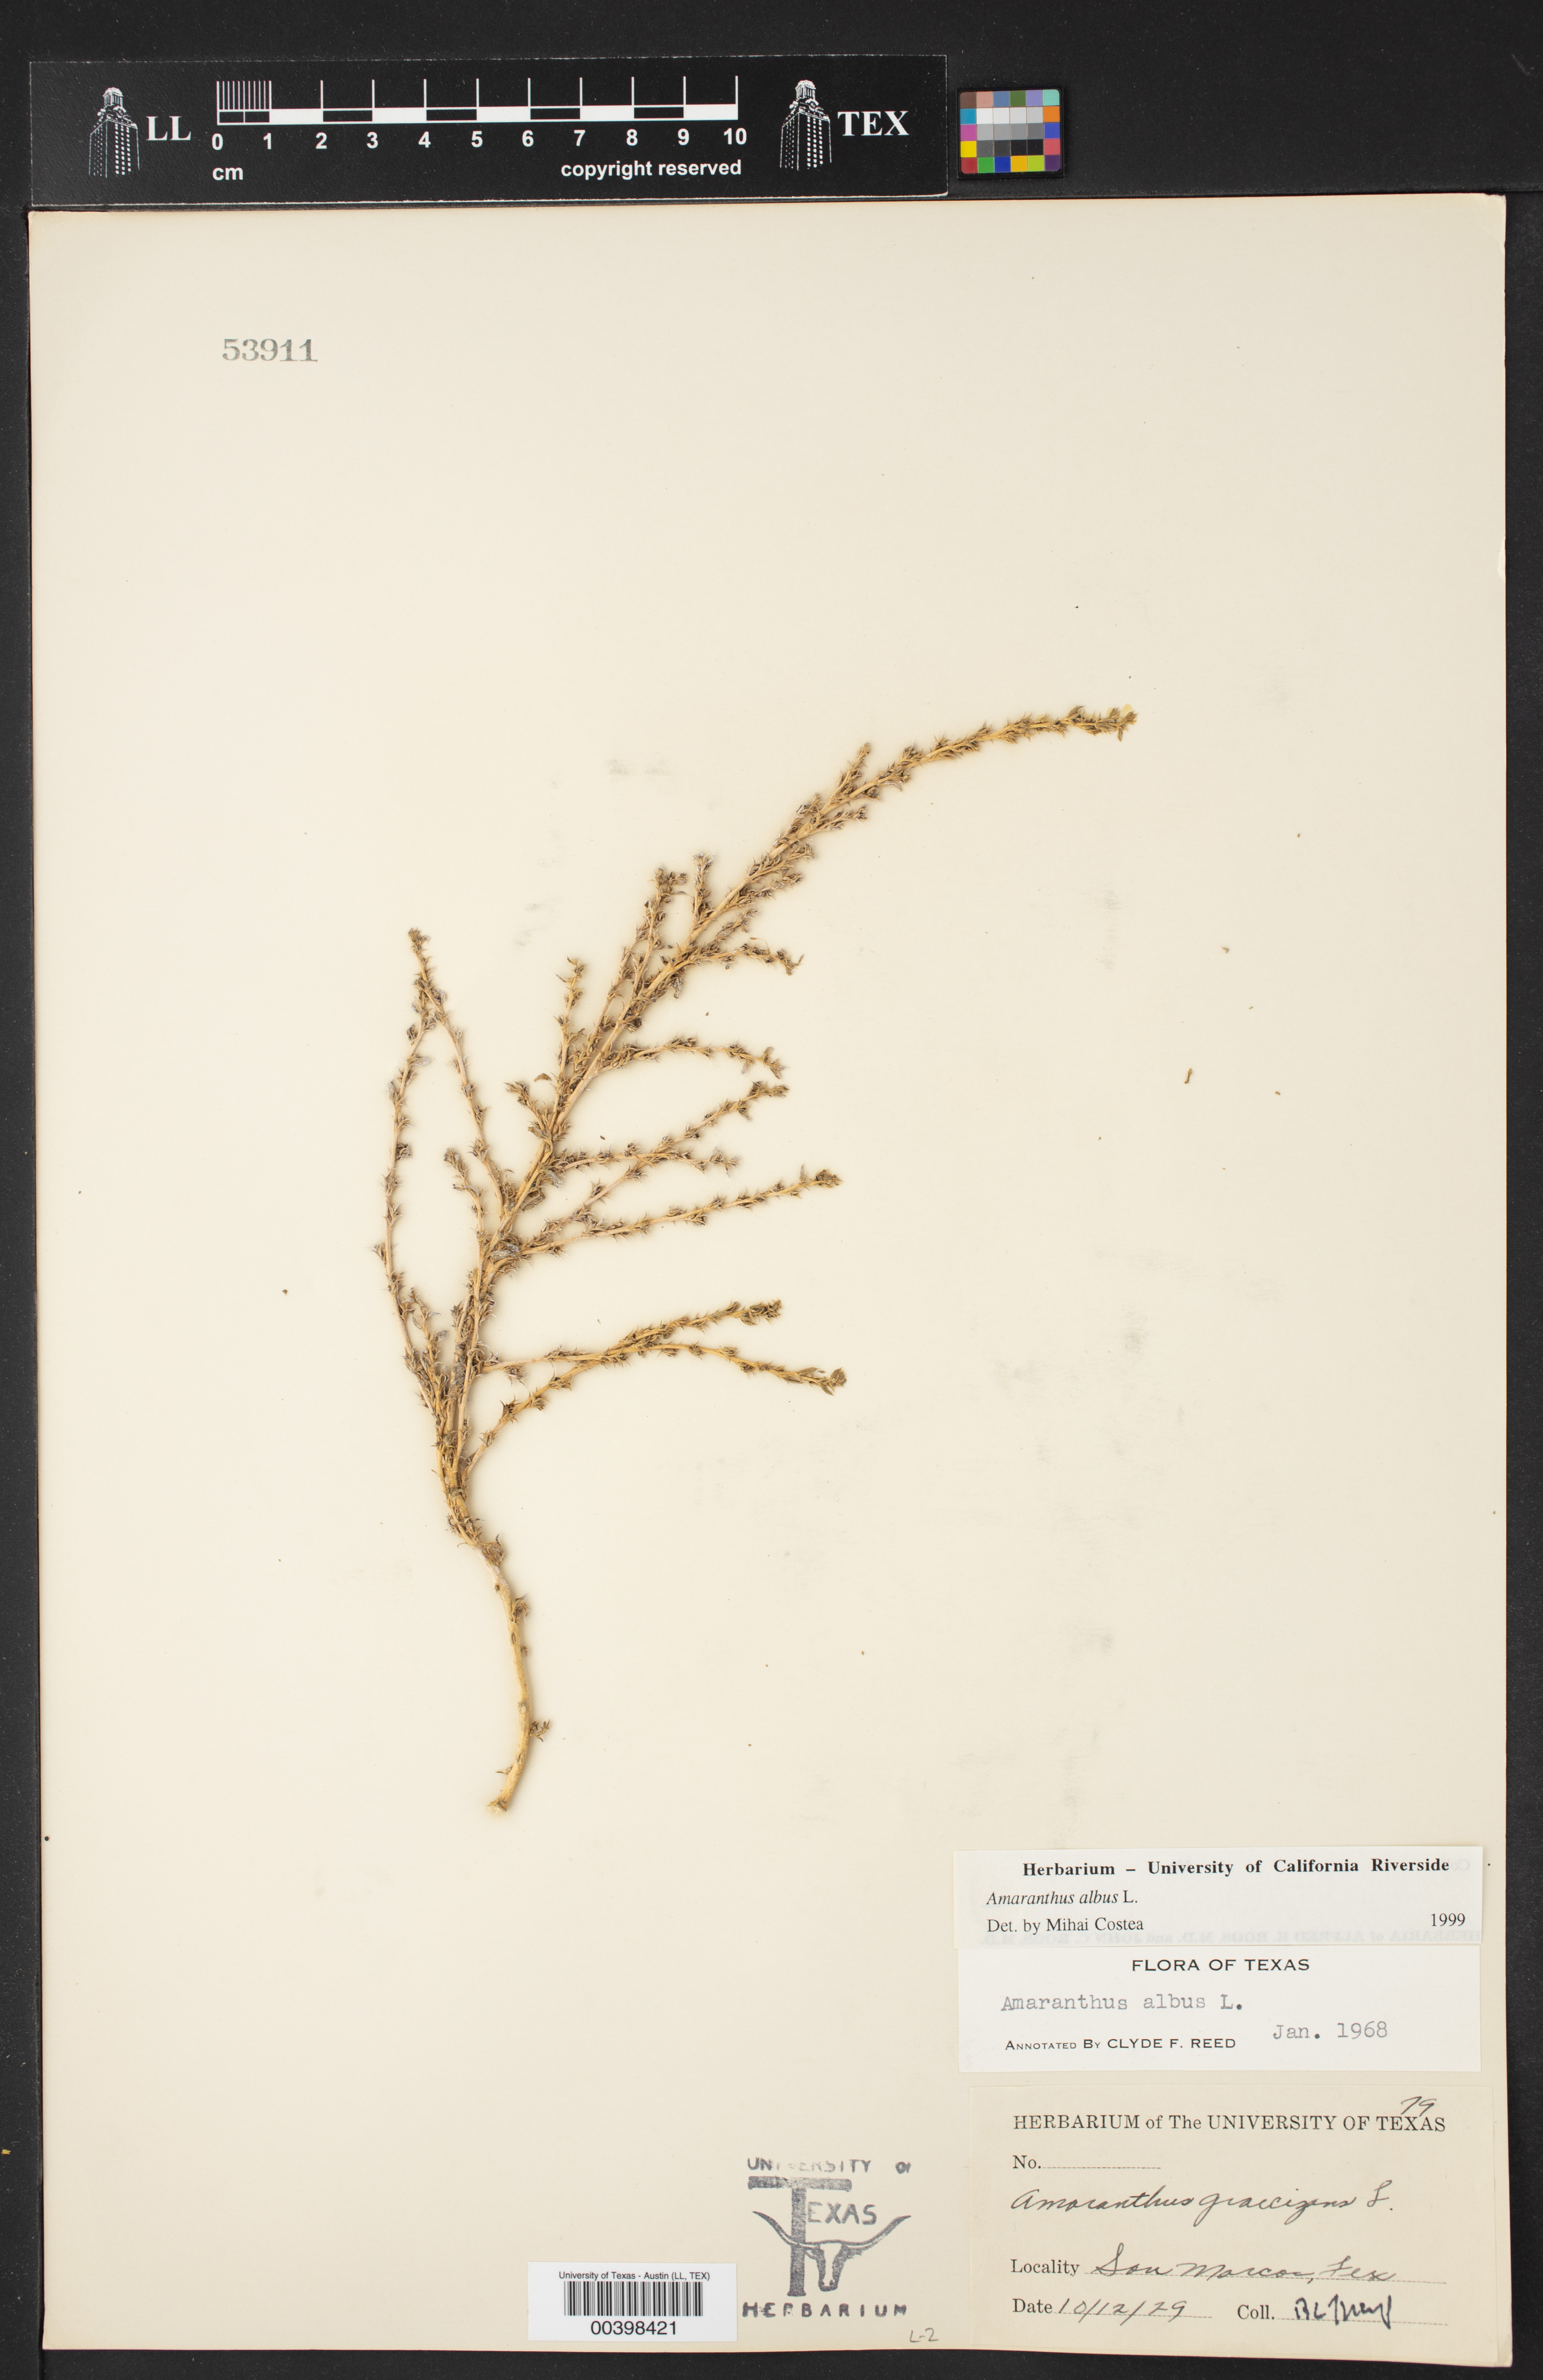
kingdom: Plantae
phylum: Tracheophyta
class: Magnoliopsida
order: Caryophyllales
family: Amaranthaceae
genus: Amaranthus
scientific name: Amaranthus albus
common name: White pigweed
